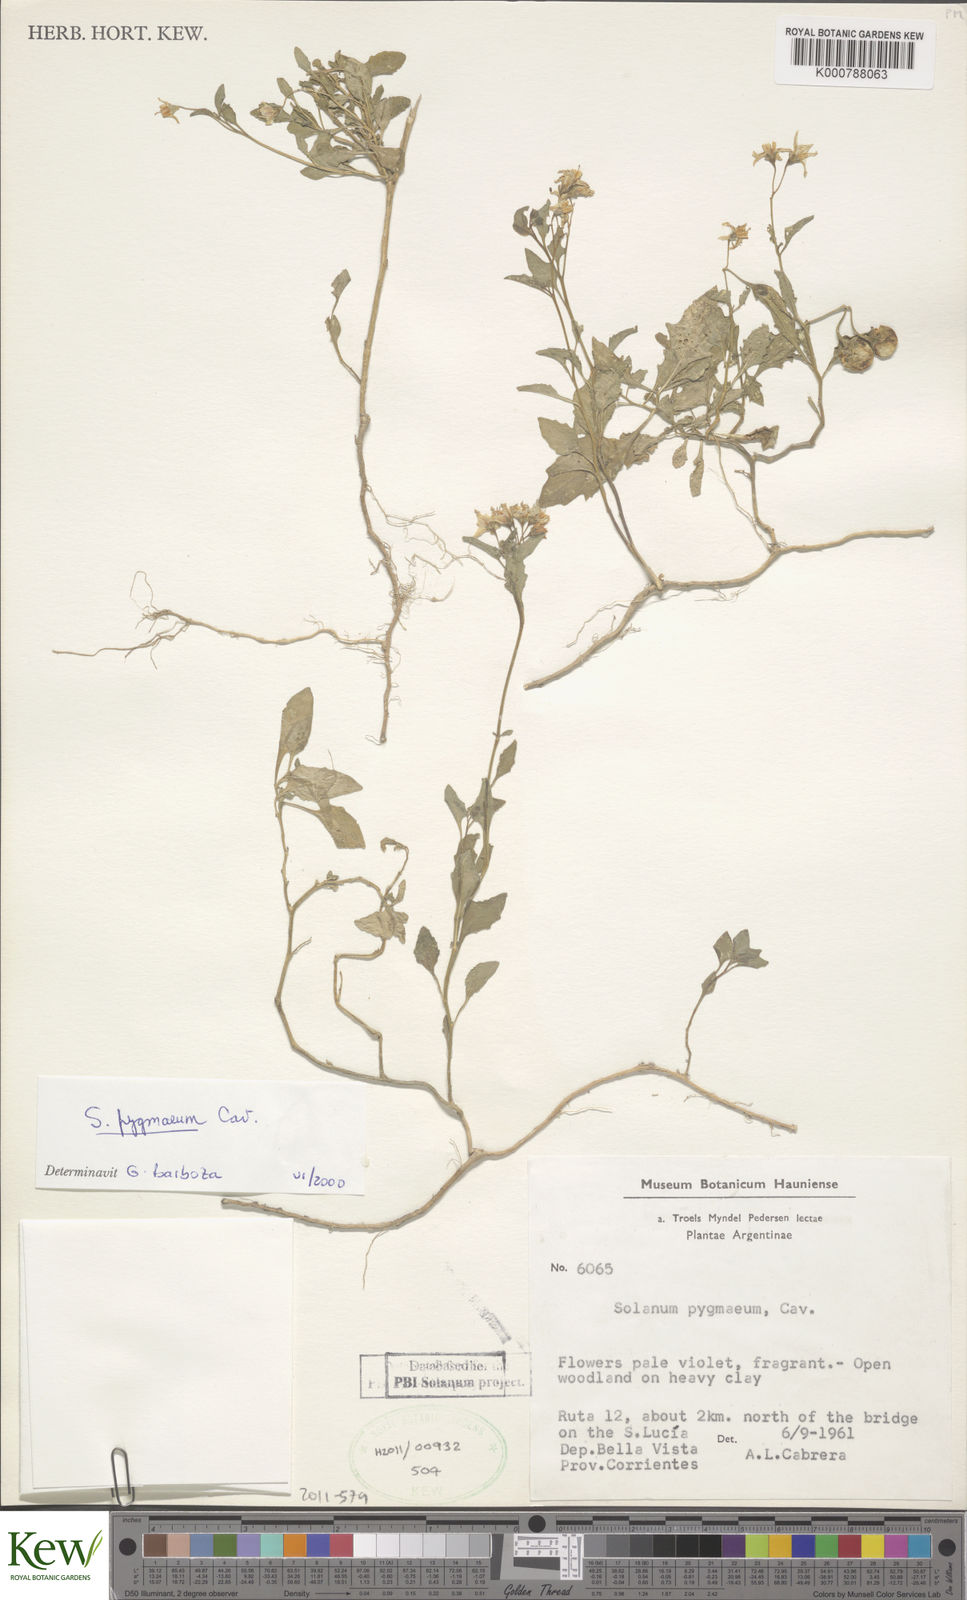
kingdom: Plantae
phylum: Tracheophyta
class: Magnoliopsida
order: Solanales
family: Solanaceae
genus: Solanum
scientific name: Solanum pygmaeum
